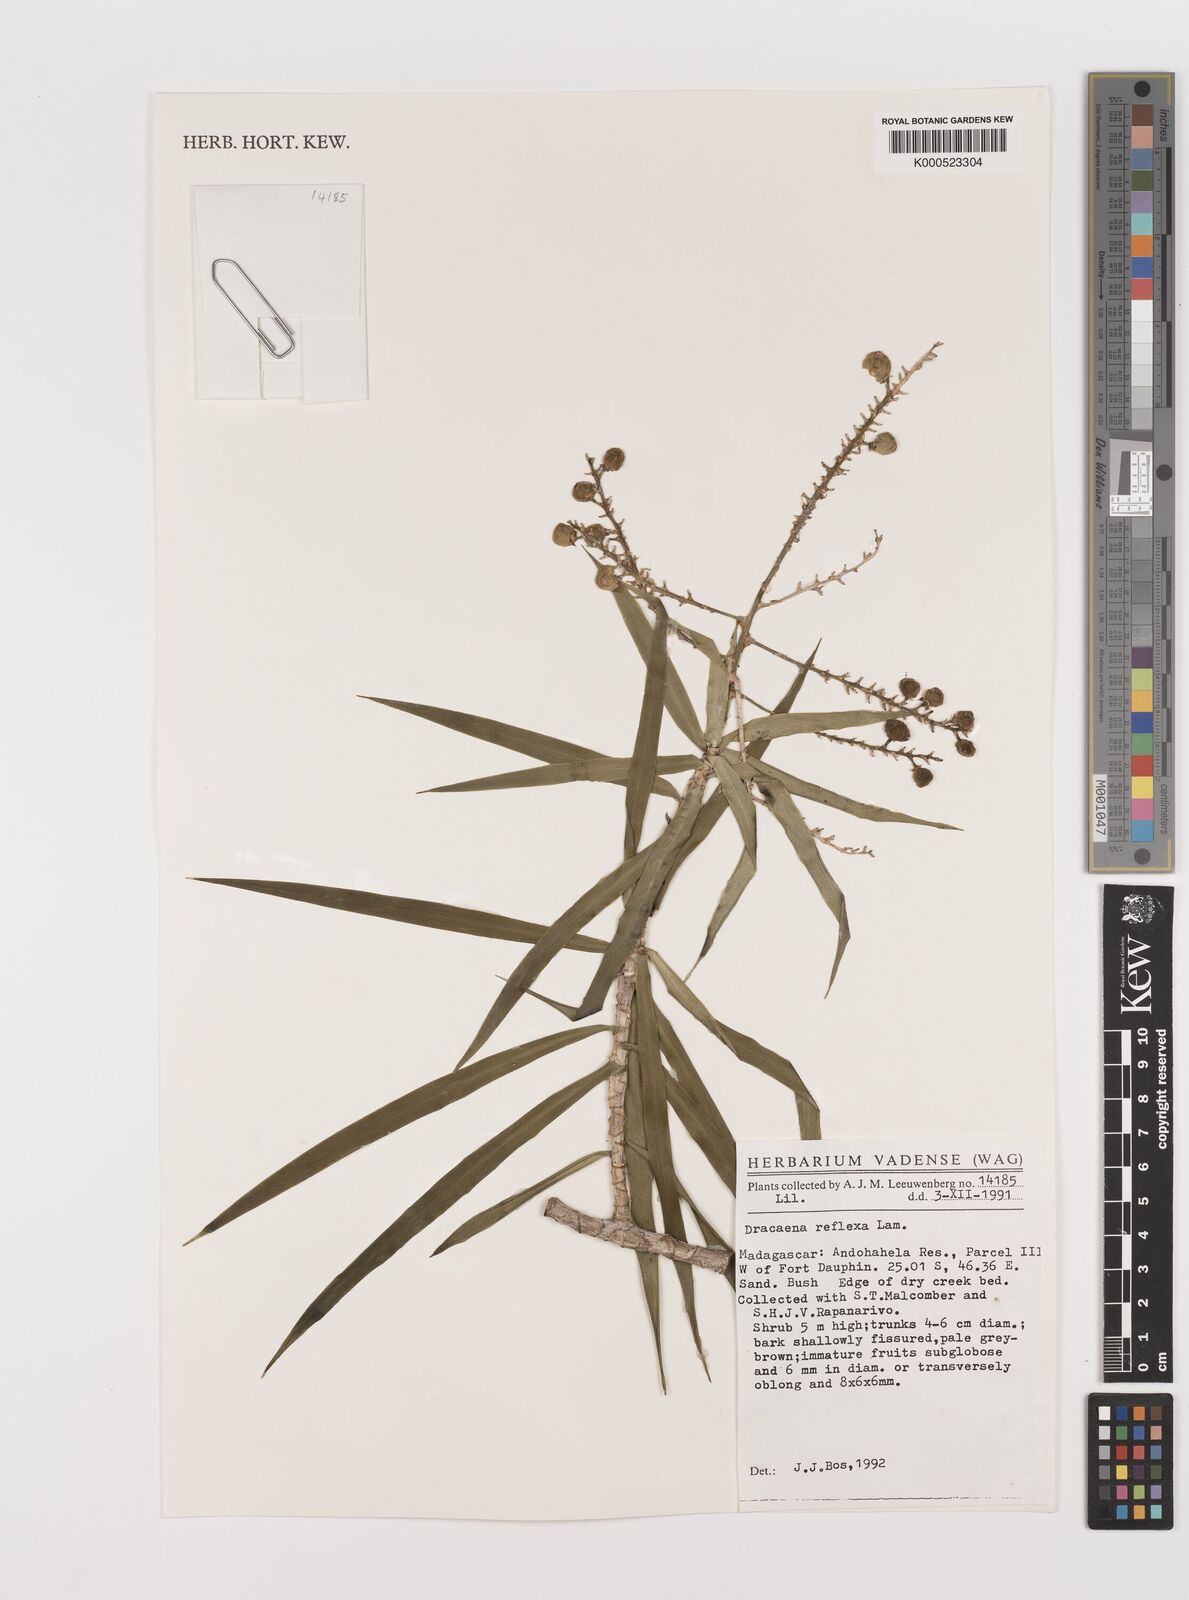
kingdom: Plantae
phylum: Tracheophyta
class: Liliopsida
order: Asparagales
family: Asparagaceae
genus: Dracaena
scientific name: Dracaena reflexa
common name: Song-of-india
